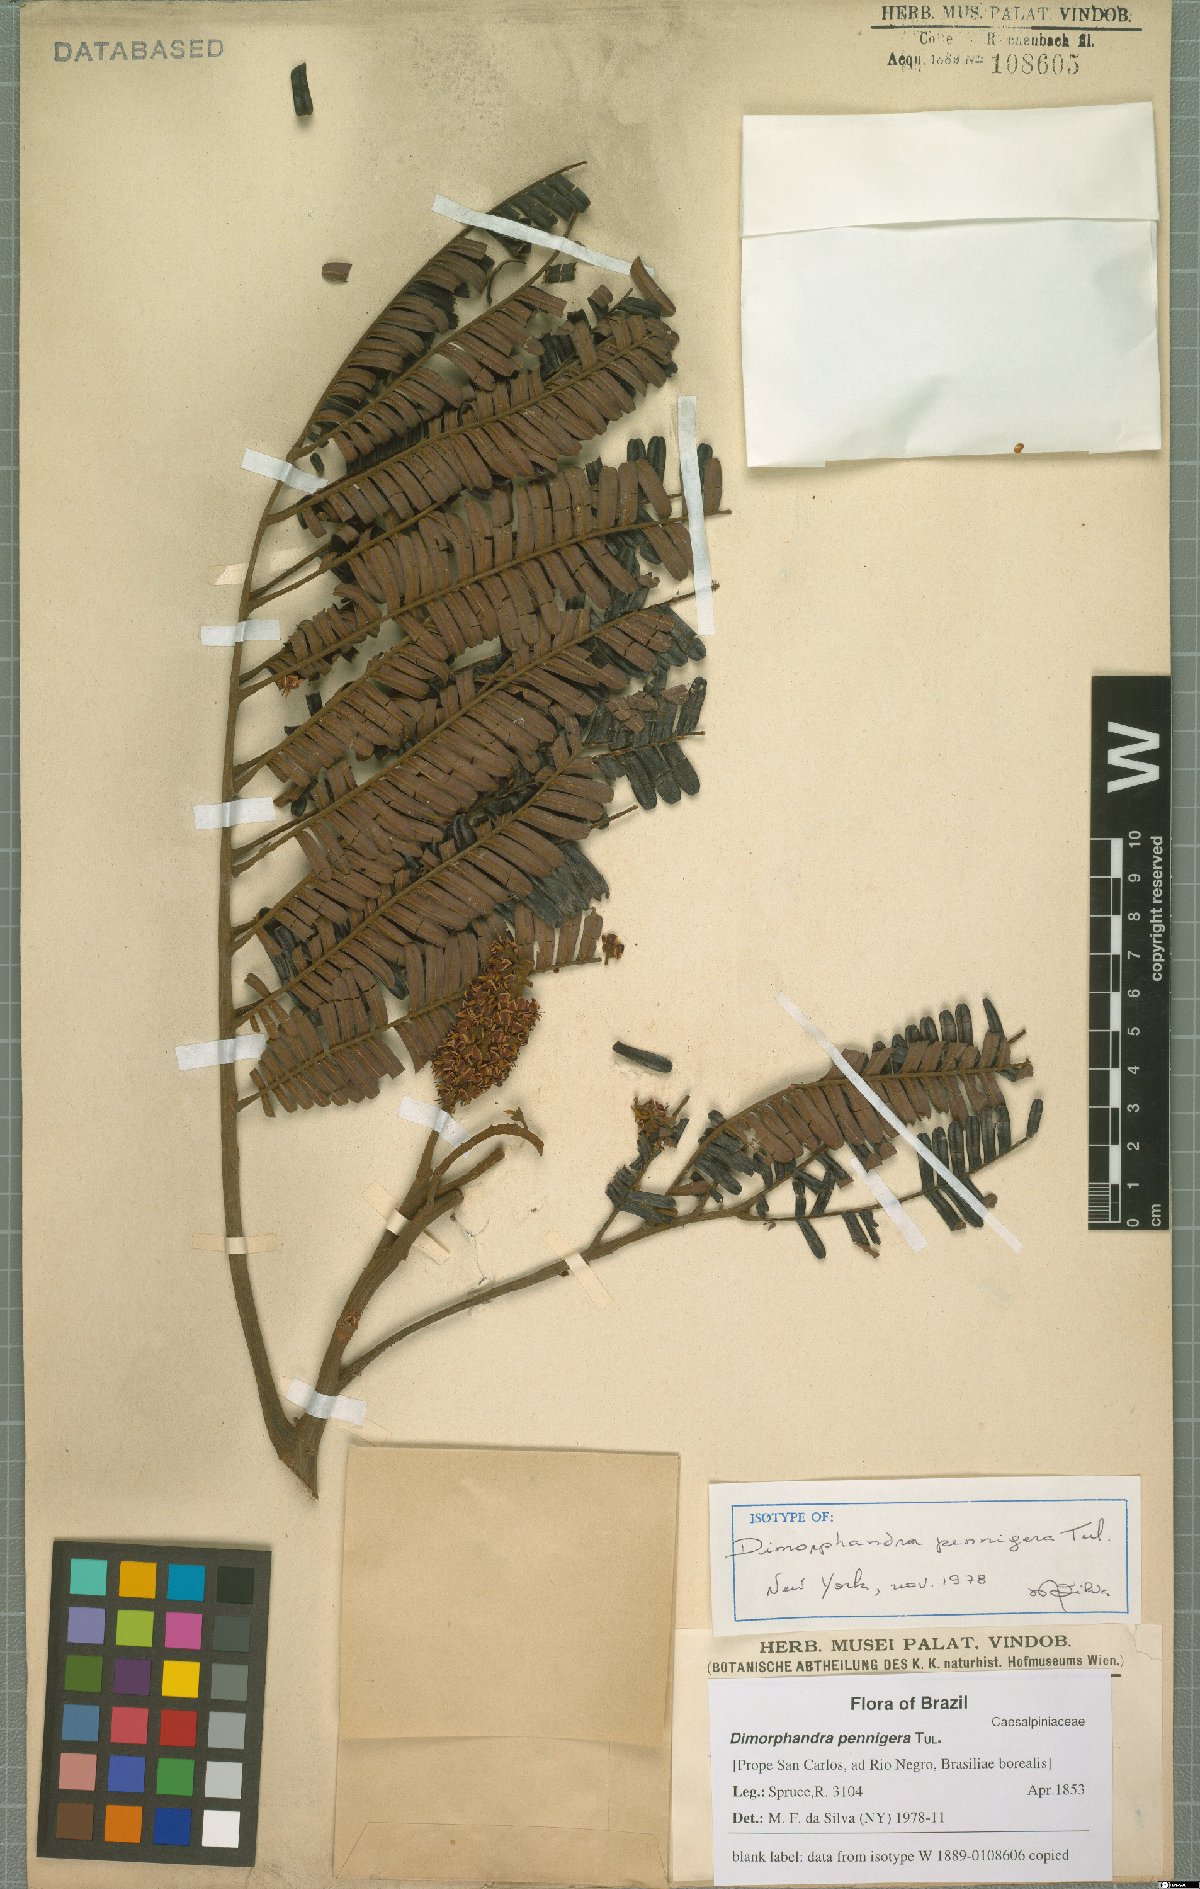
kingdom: Plantae
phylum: Tracheophyta
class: Magnoliopsida
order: Fabales
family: Fabaceae
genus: Dimorphandra
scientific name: Dimorphandra pennigera
